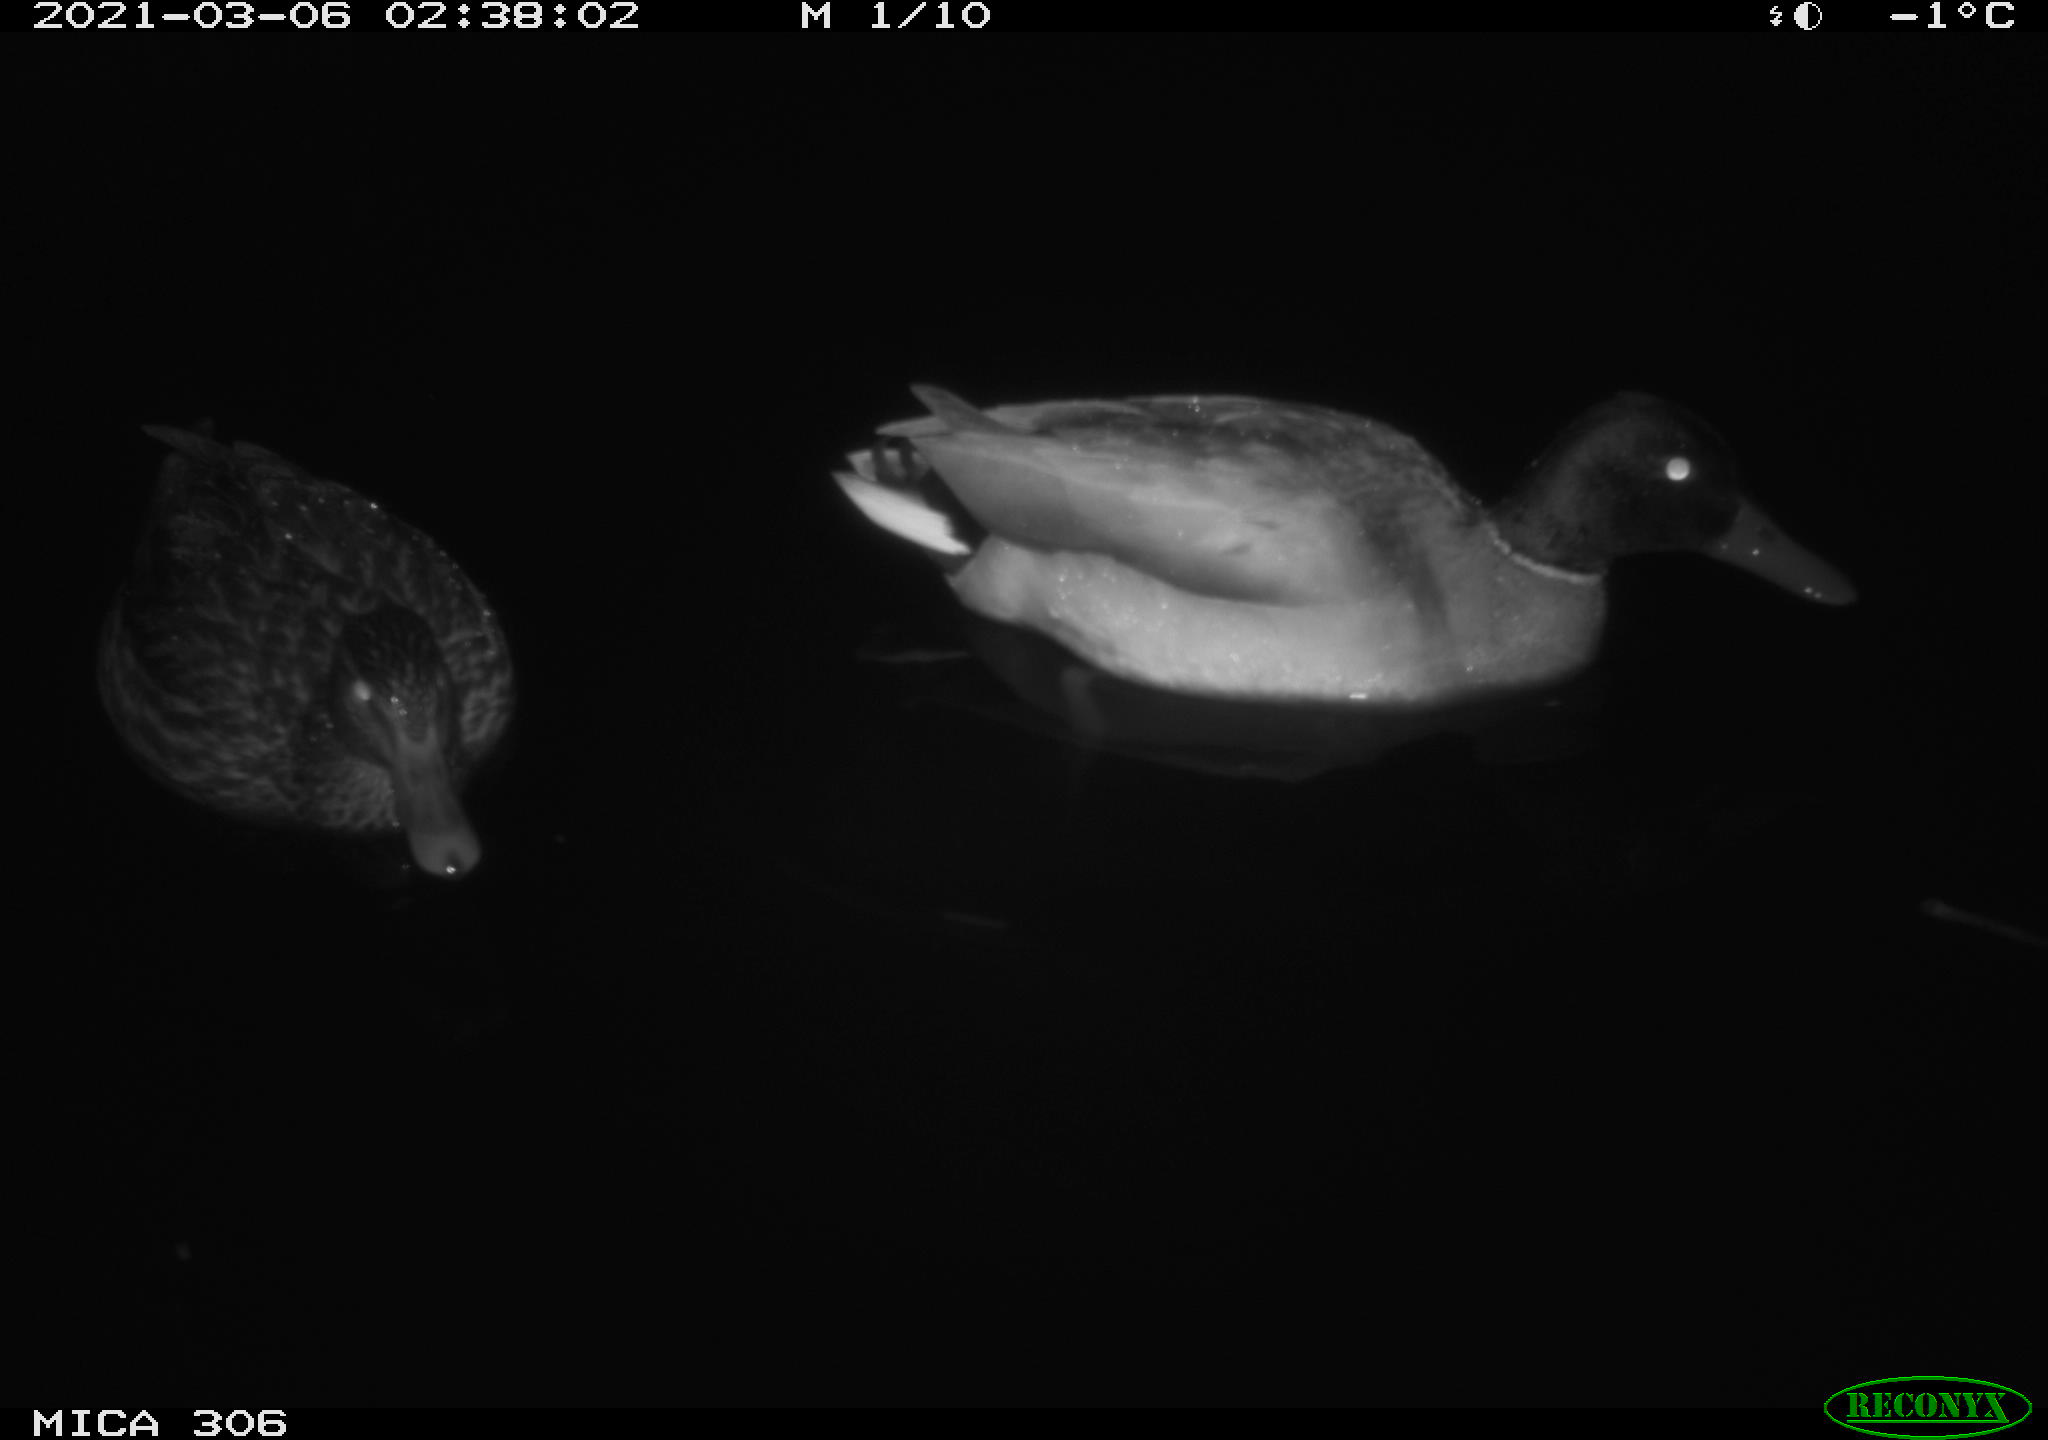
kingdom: Animalia
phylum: Chordata
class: Aves
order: Anseriformes
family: Anatidae
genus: Anas
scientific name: Anas platyrhynchos
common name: Mallard
